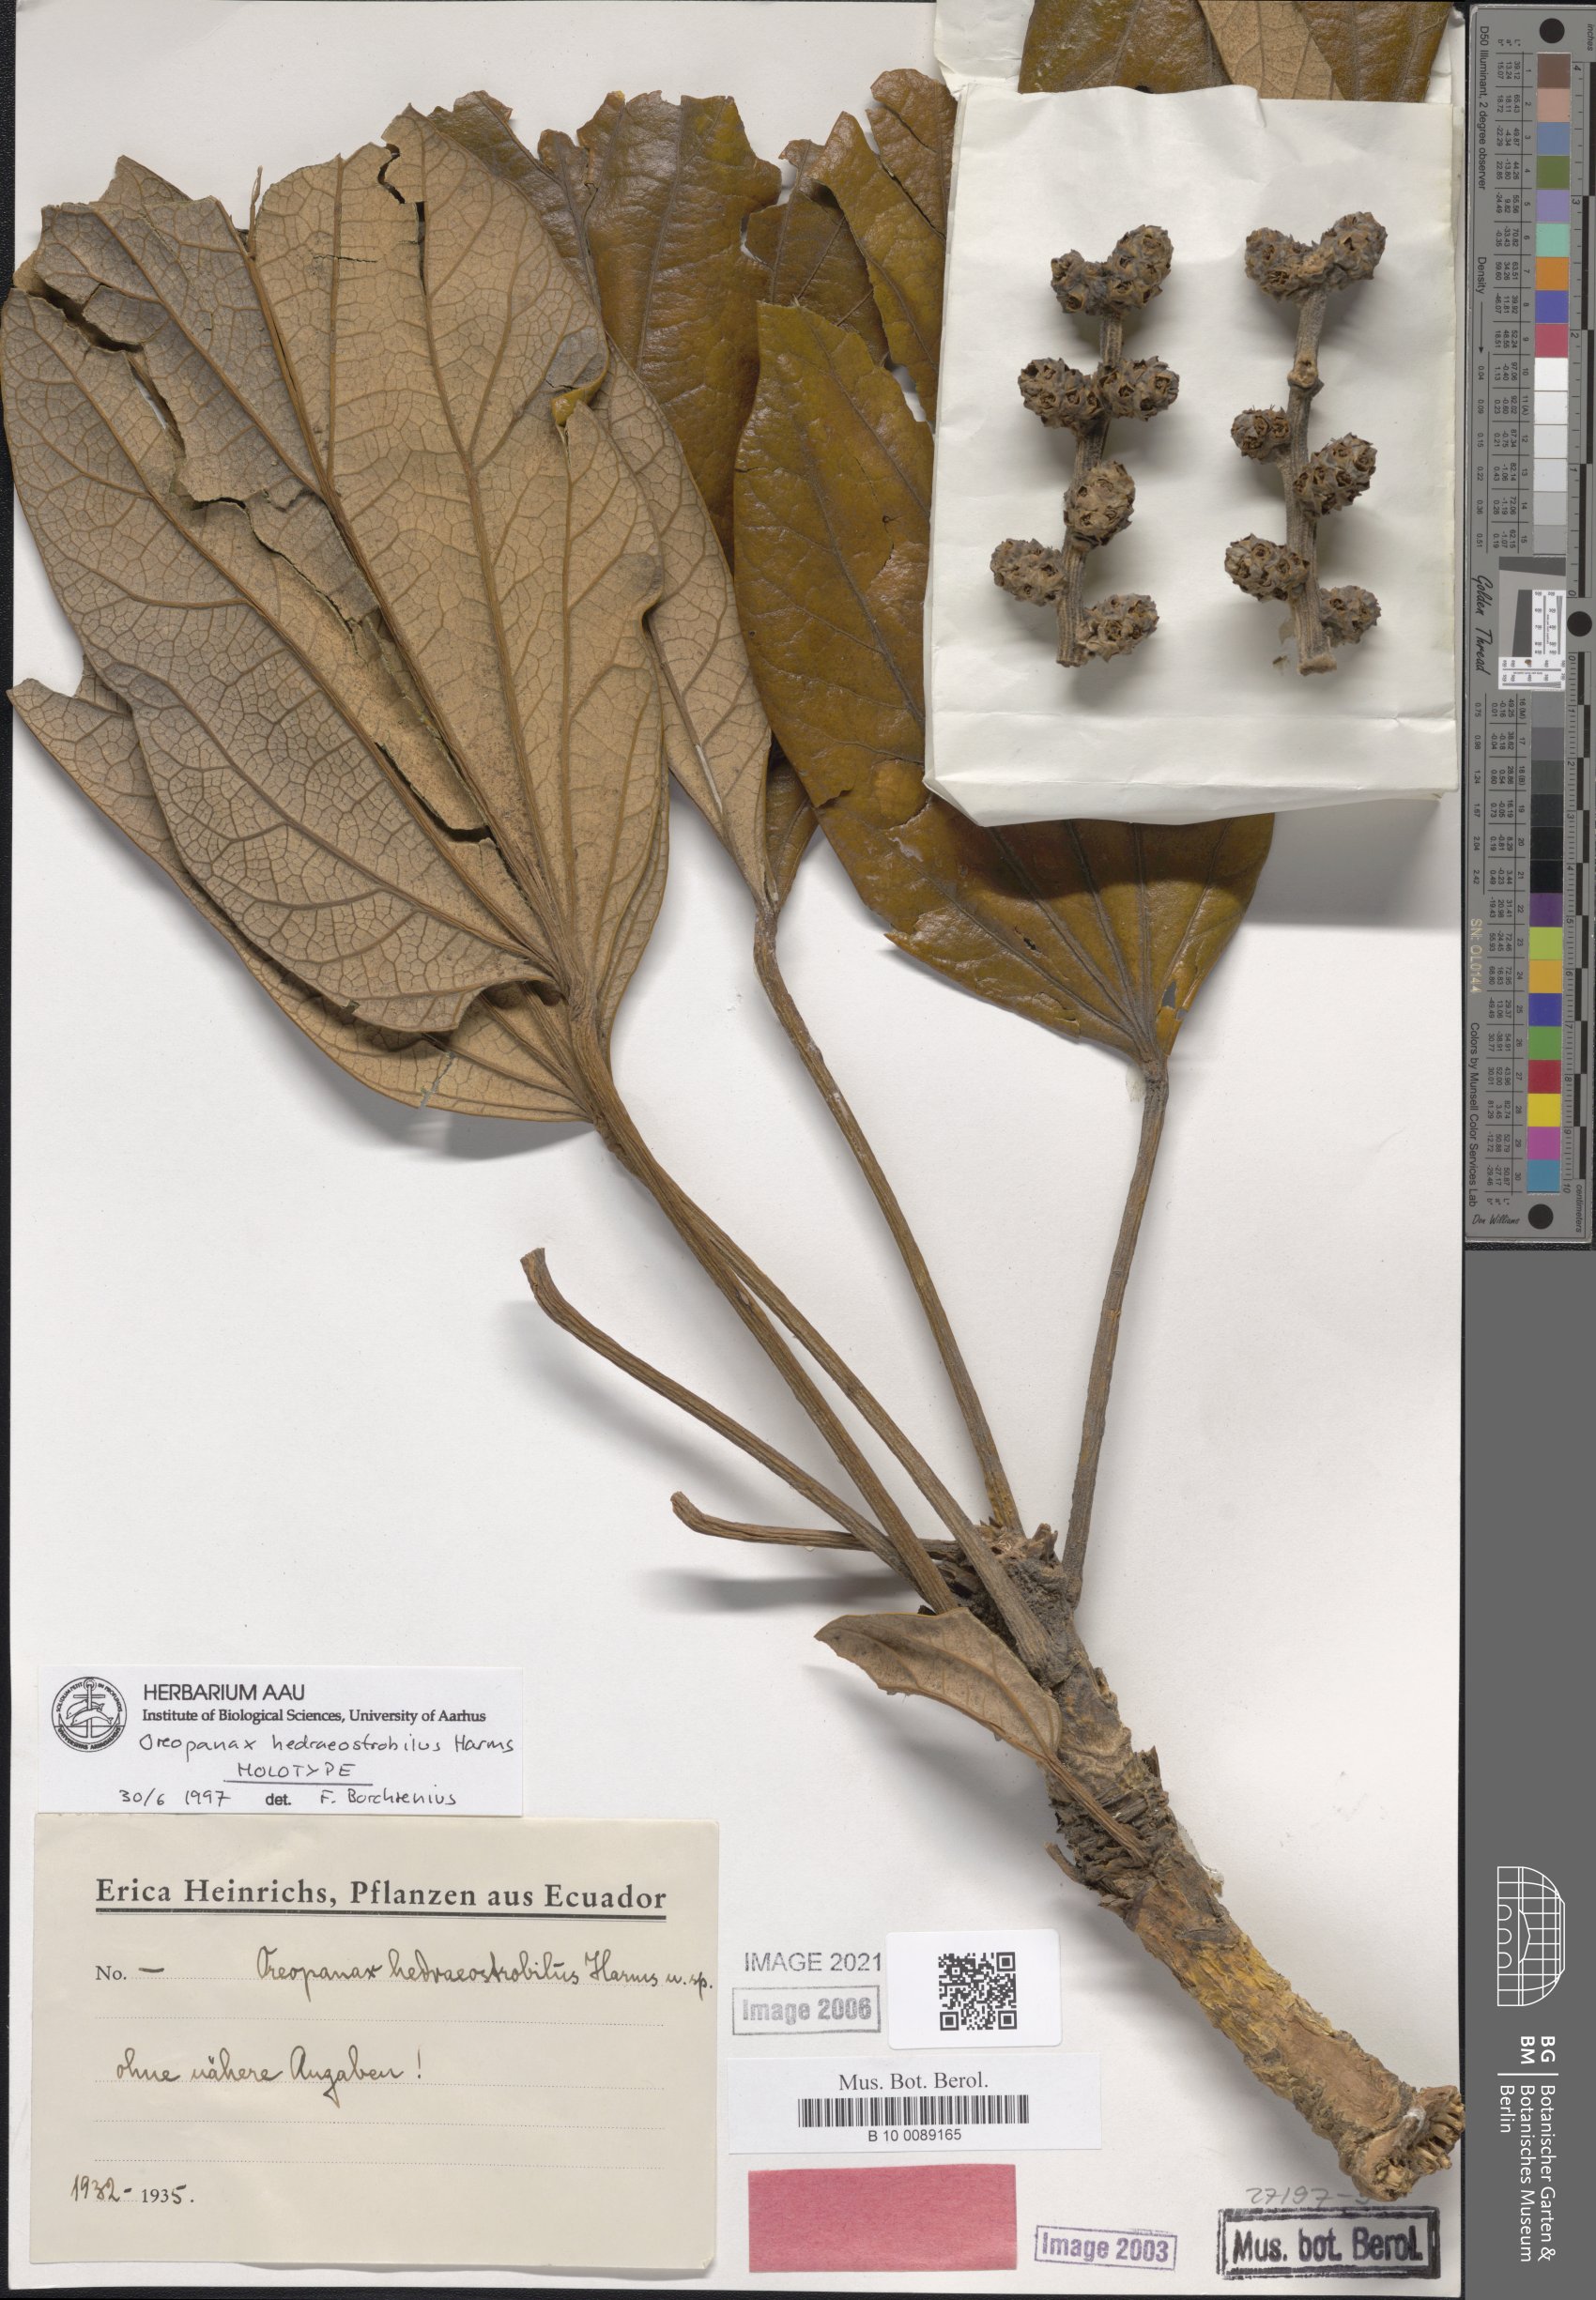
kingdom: Plantae
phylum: Tracheophyta
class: Magnoliopsida
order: Apiales
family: Araliaceae
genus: Oreopanax
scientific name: Oreopanax hedraeostrobilus
